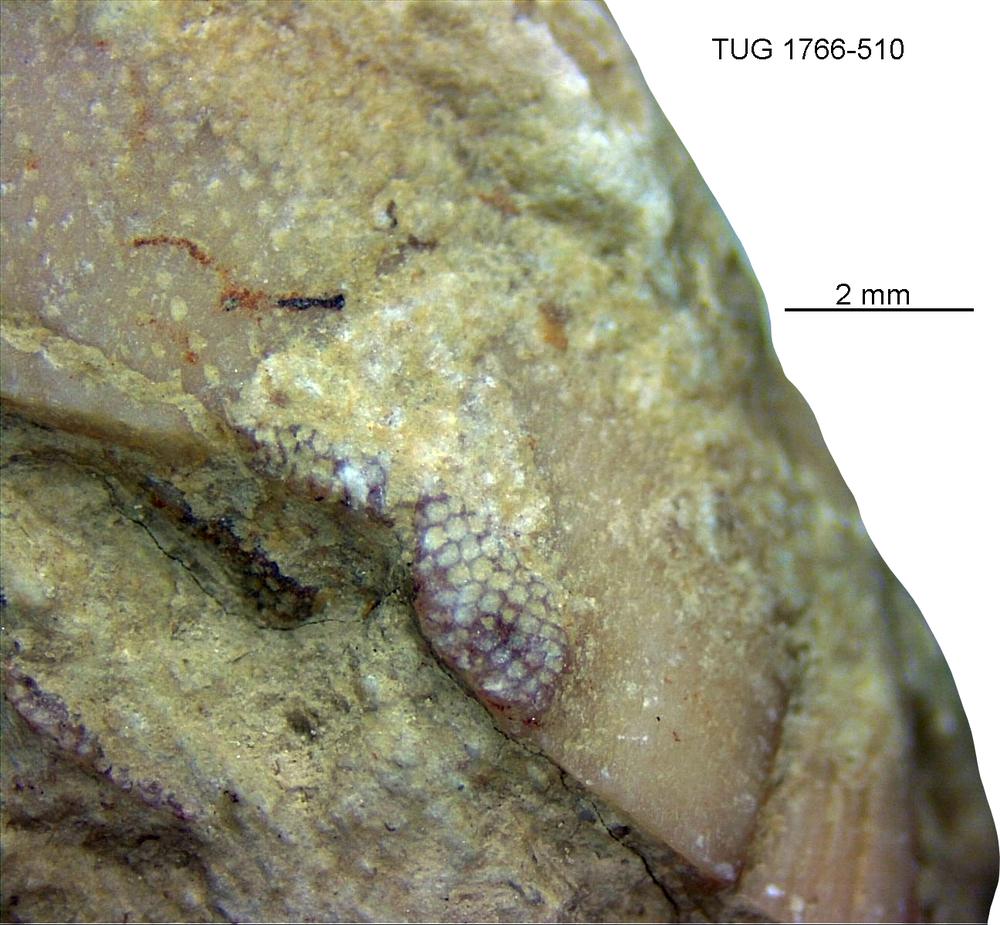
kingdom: Animalia
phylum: Bryozoa
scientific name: Bryozoa
